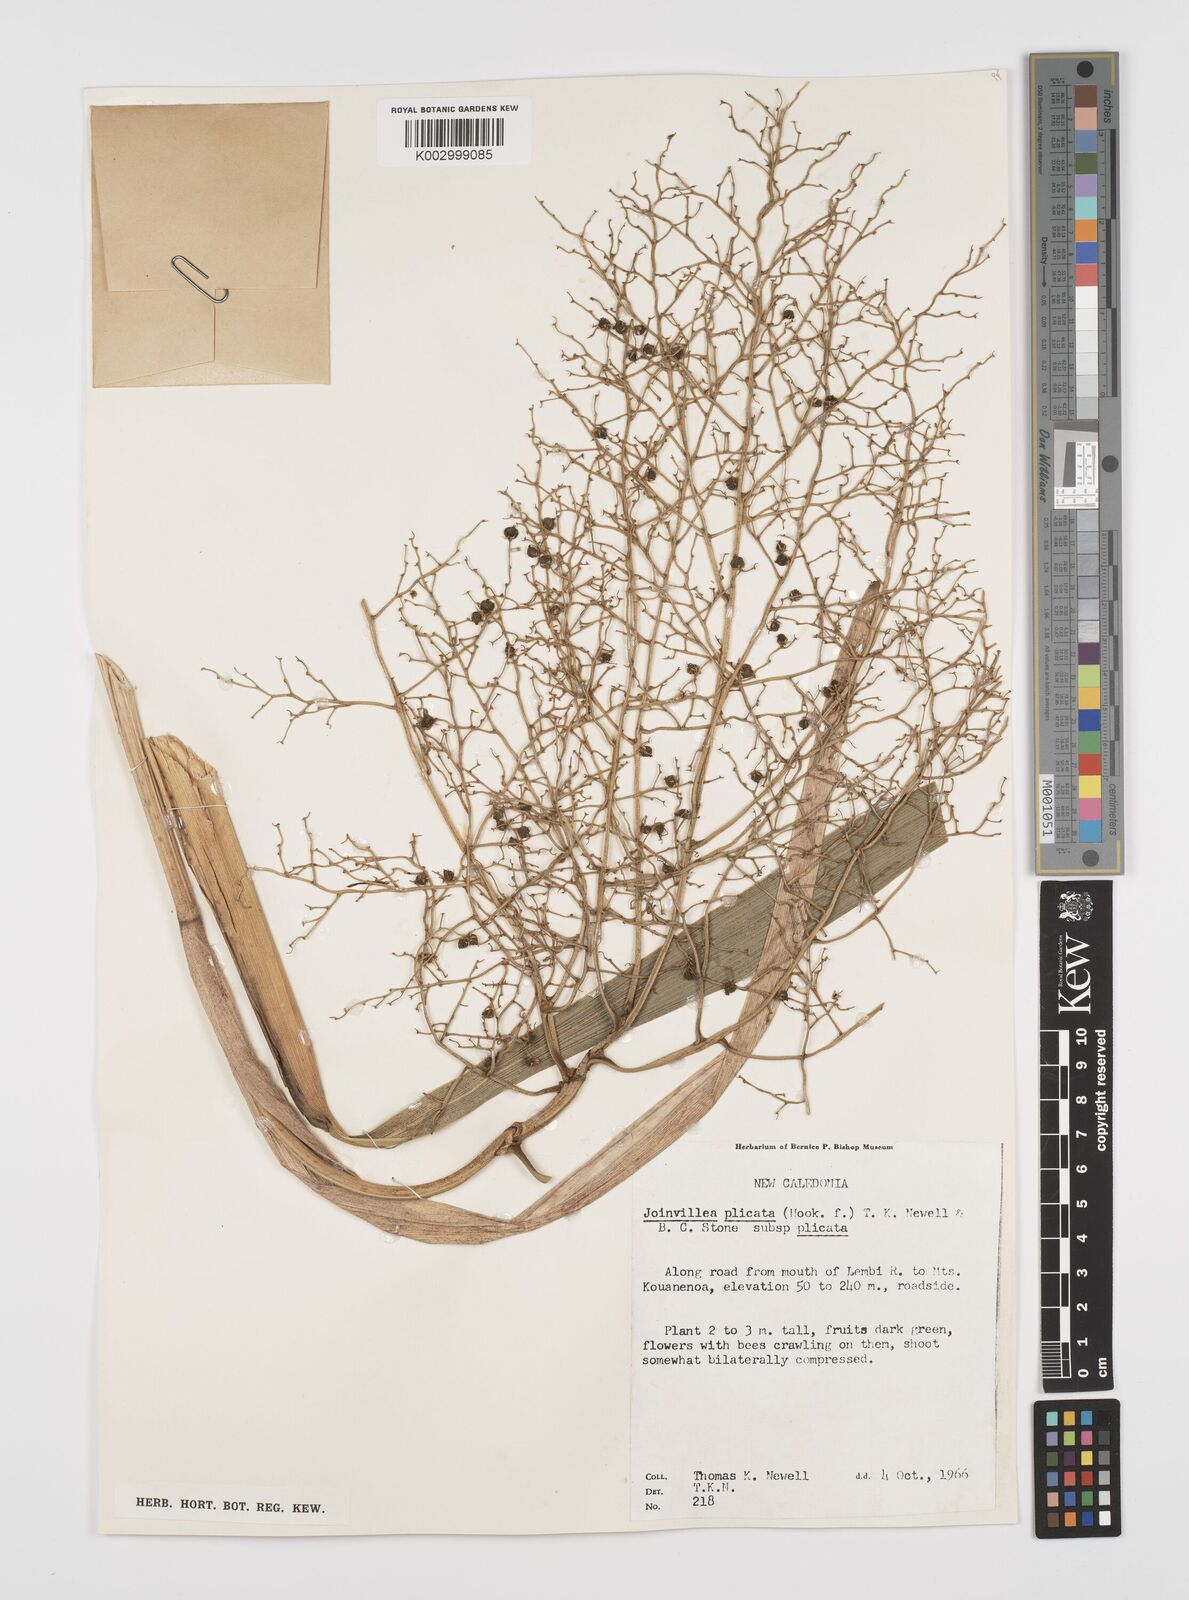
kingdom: Plantae
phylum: Tracheophyta
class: Liliopsida
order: Poales
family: Joinvilleaceae
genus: Joinvillea
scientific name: Joinvillea plicata
